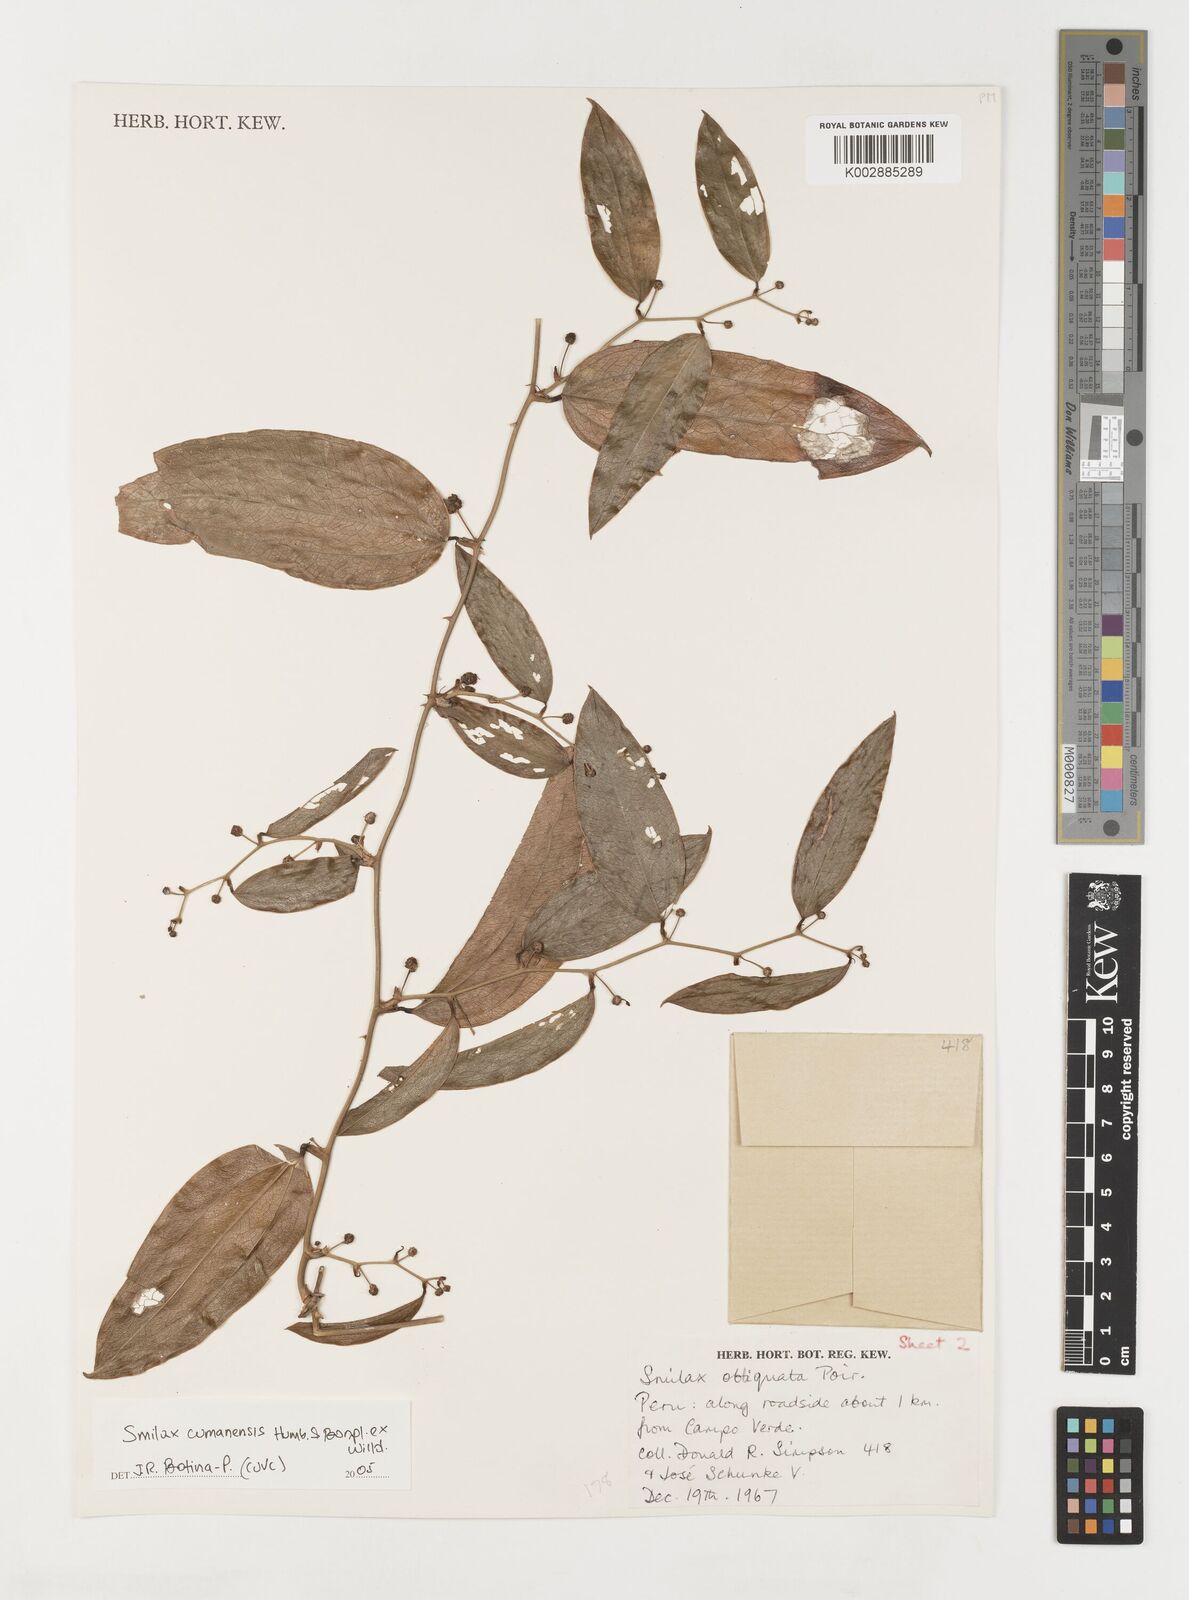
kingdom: Plantae
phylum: Tracheophyta
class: Liliopsida
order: Liliales
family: Smilacaceae
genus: Smilax
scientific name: Smilax oblongata
